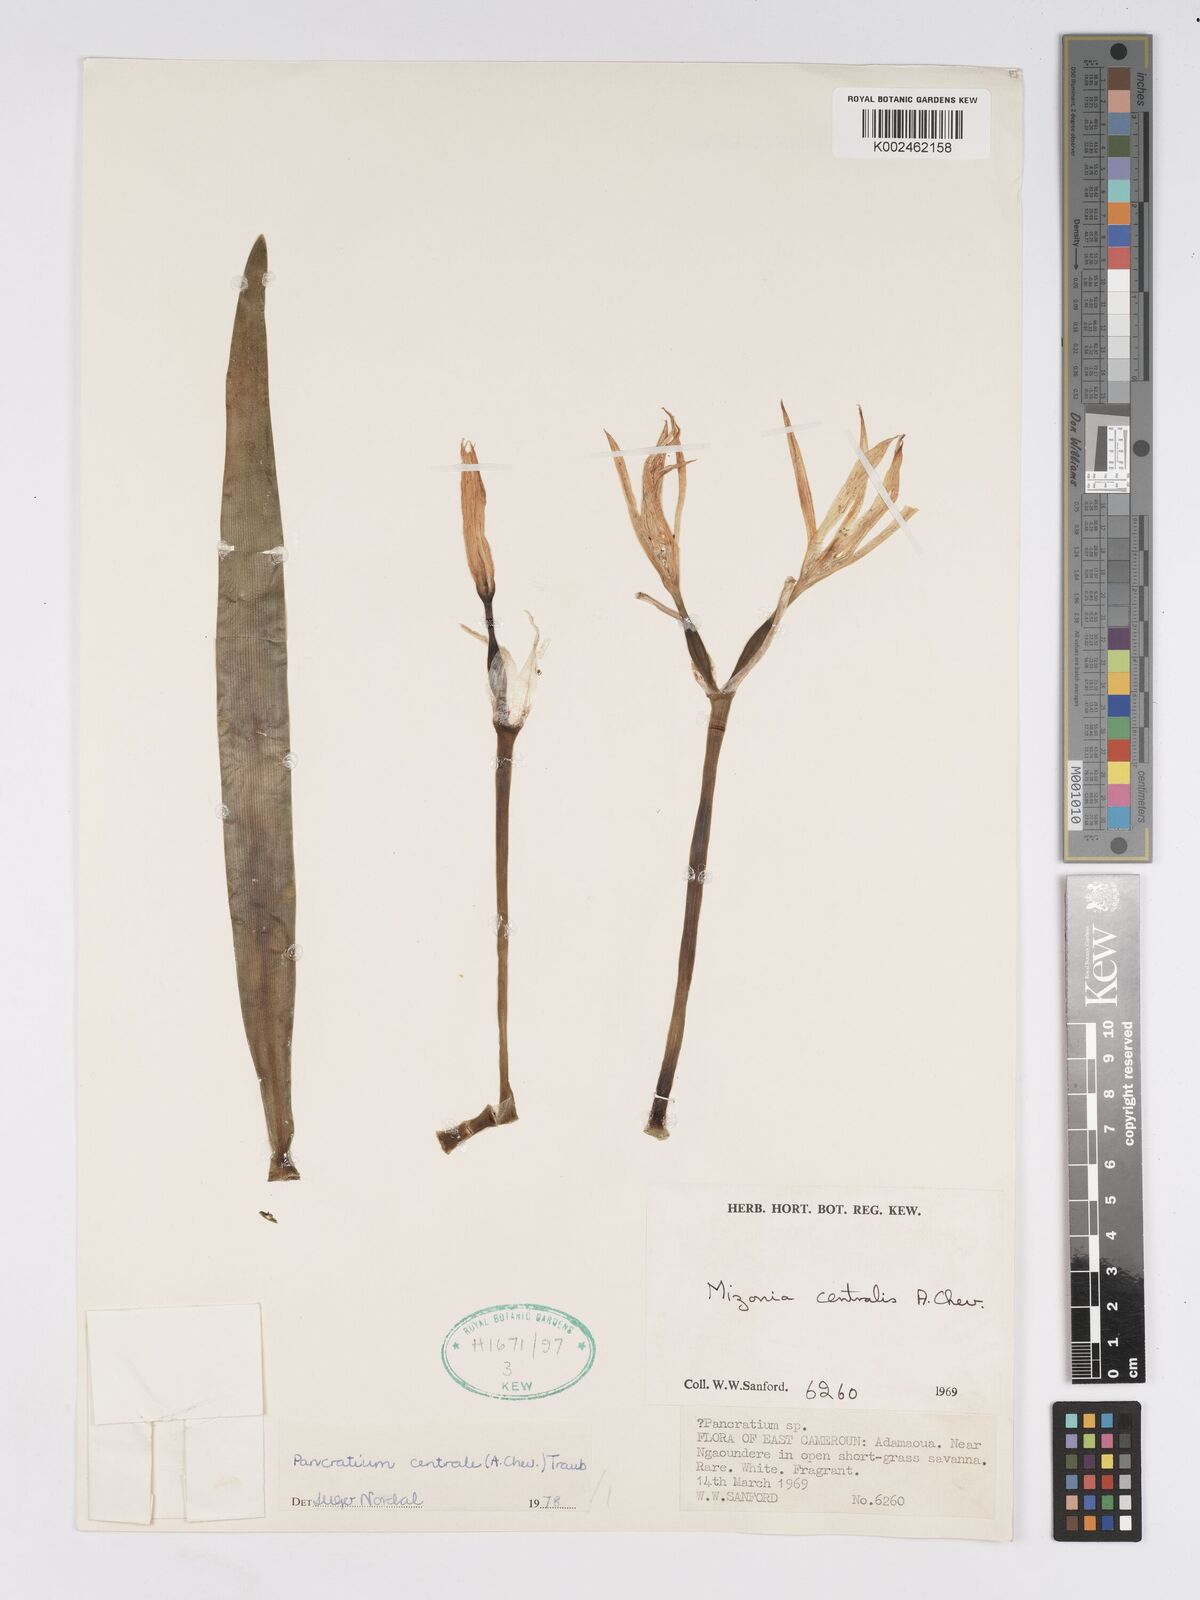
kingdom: Plantae
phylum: Tracheophyta
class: Liliopsida
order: Asparagales
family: Amaryllidaceae
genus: Pancratium
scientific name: Pancratium centrale
